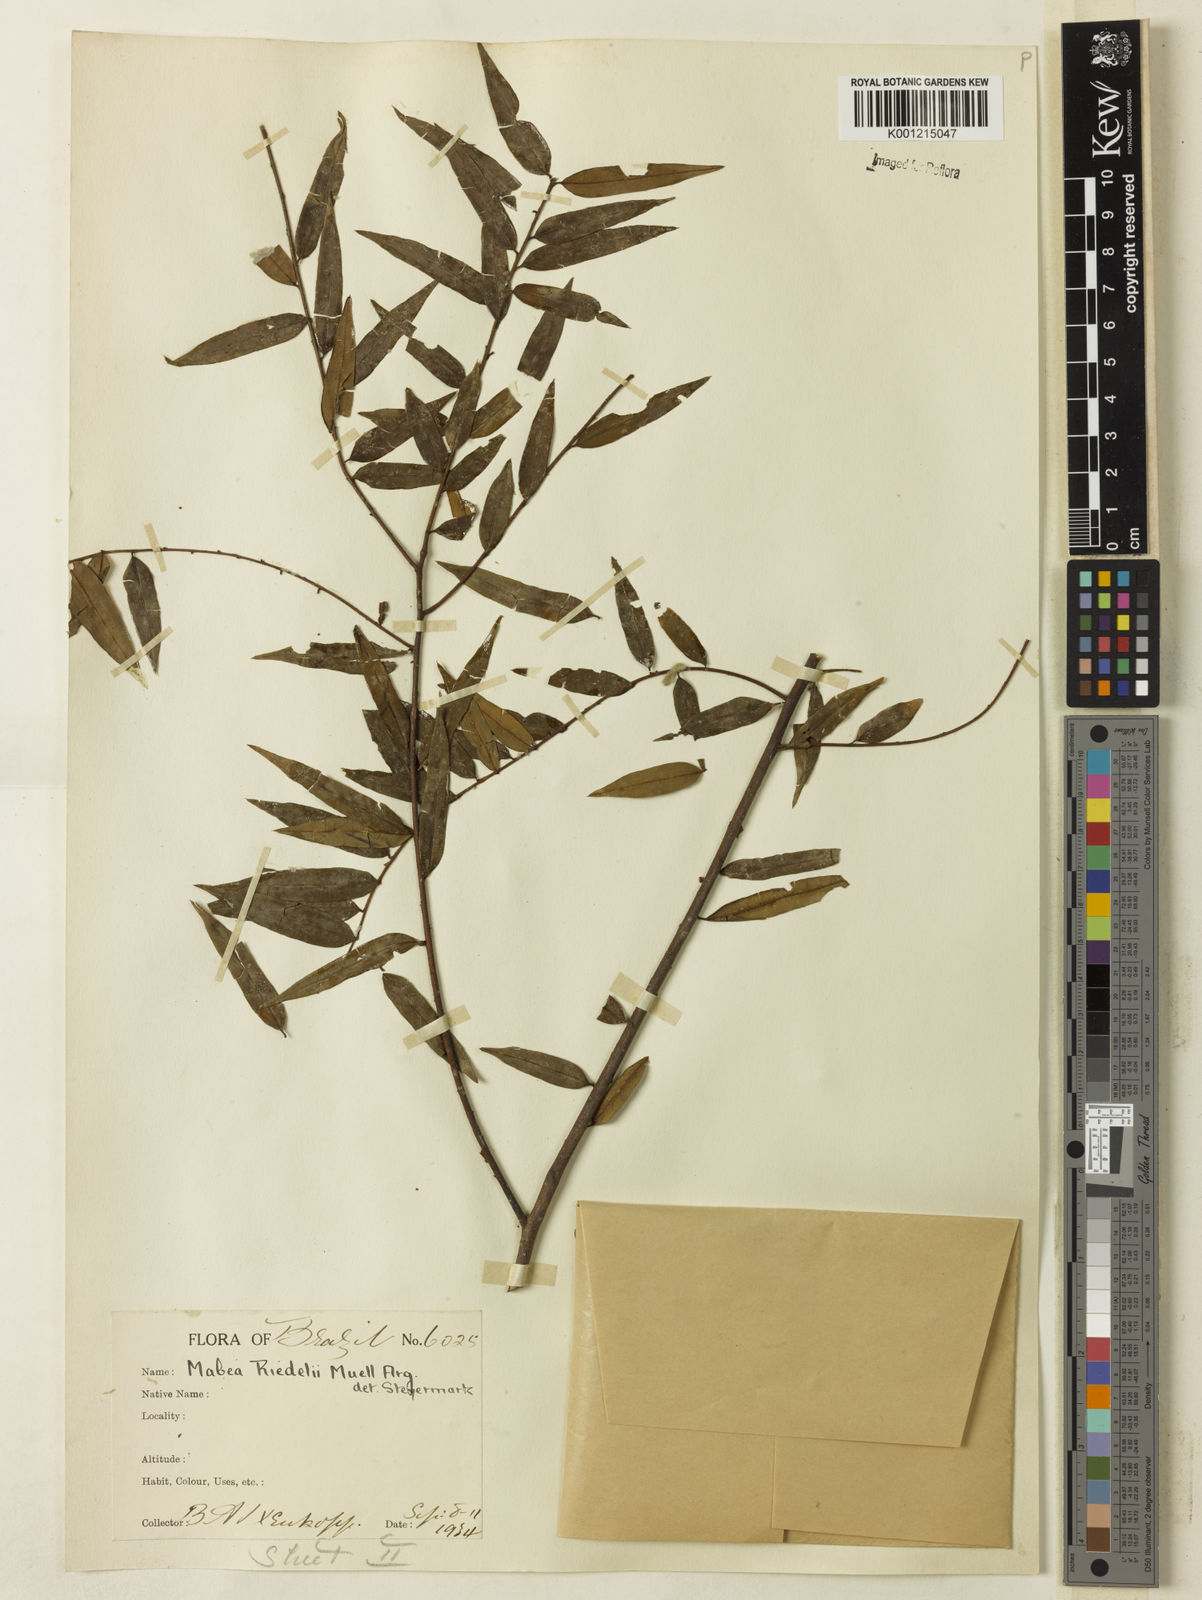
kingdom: Plantae
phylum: Tracheophyta
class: Magnoliopsida
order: Malpighiales
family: Euphorbiaceae
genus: Mabea
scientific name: Mabea
